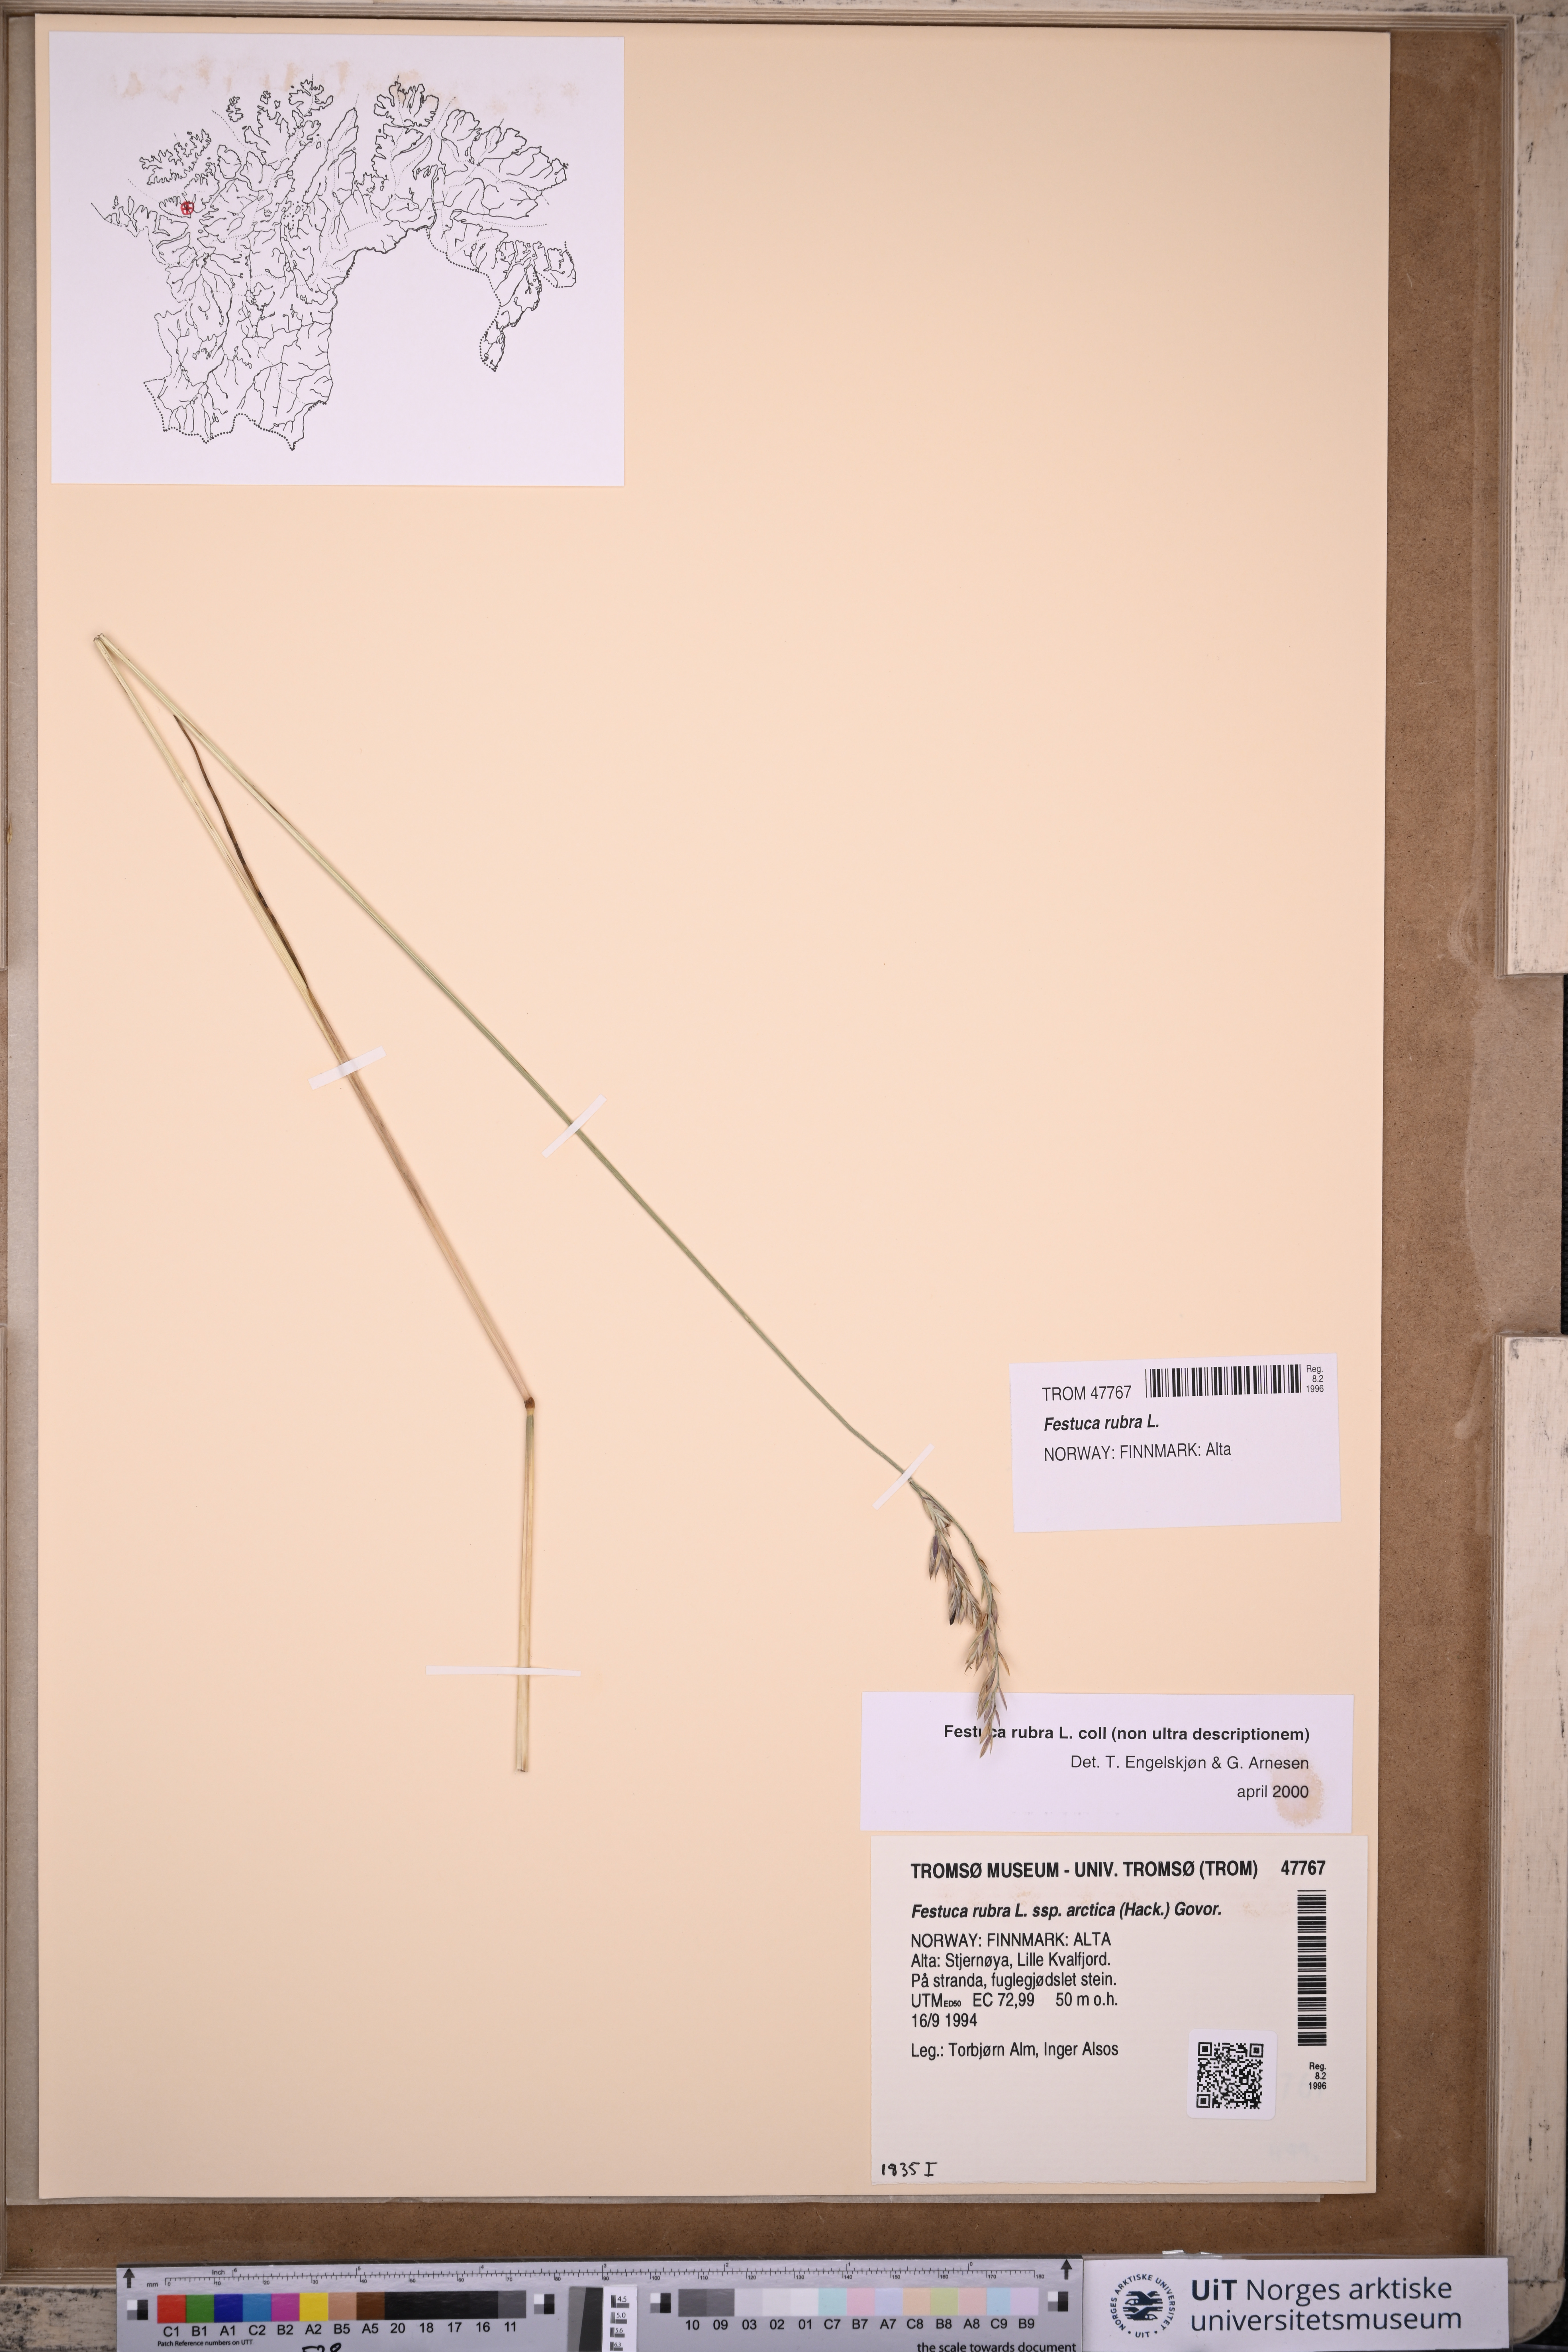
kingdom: Plantae
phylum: Tracheophyta
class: Liliopsida
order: Poales
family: Poaceae
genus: Festuca
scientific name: Festuca rubra
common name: Red fescue
